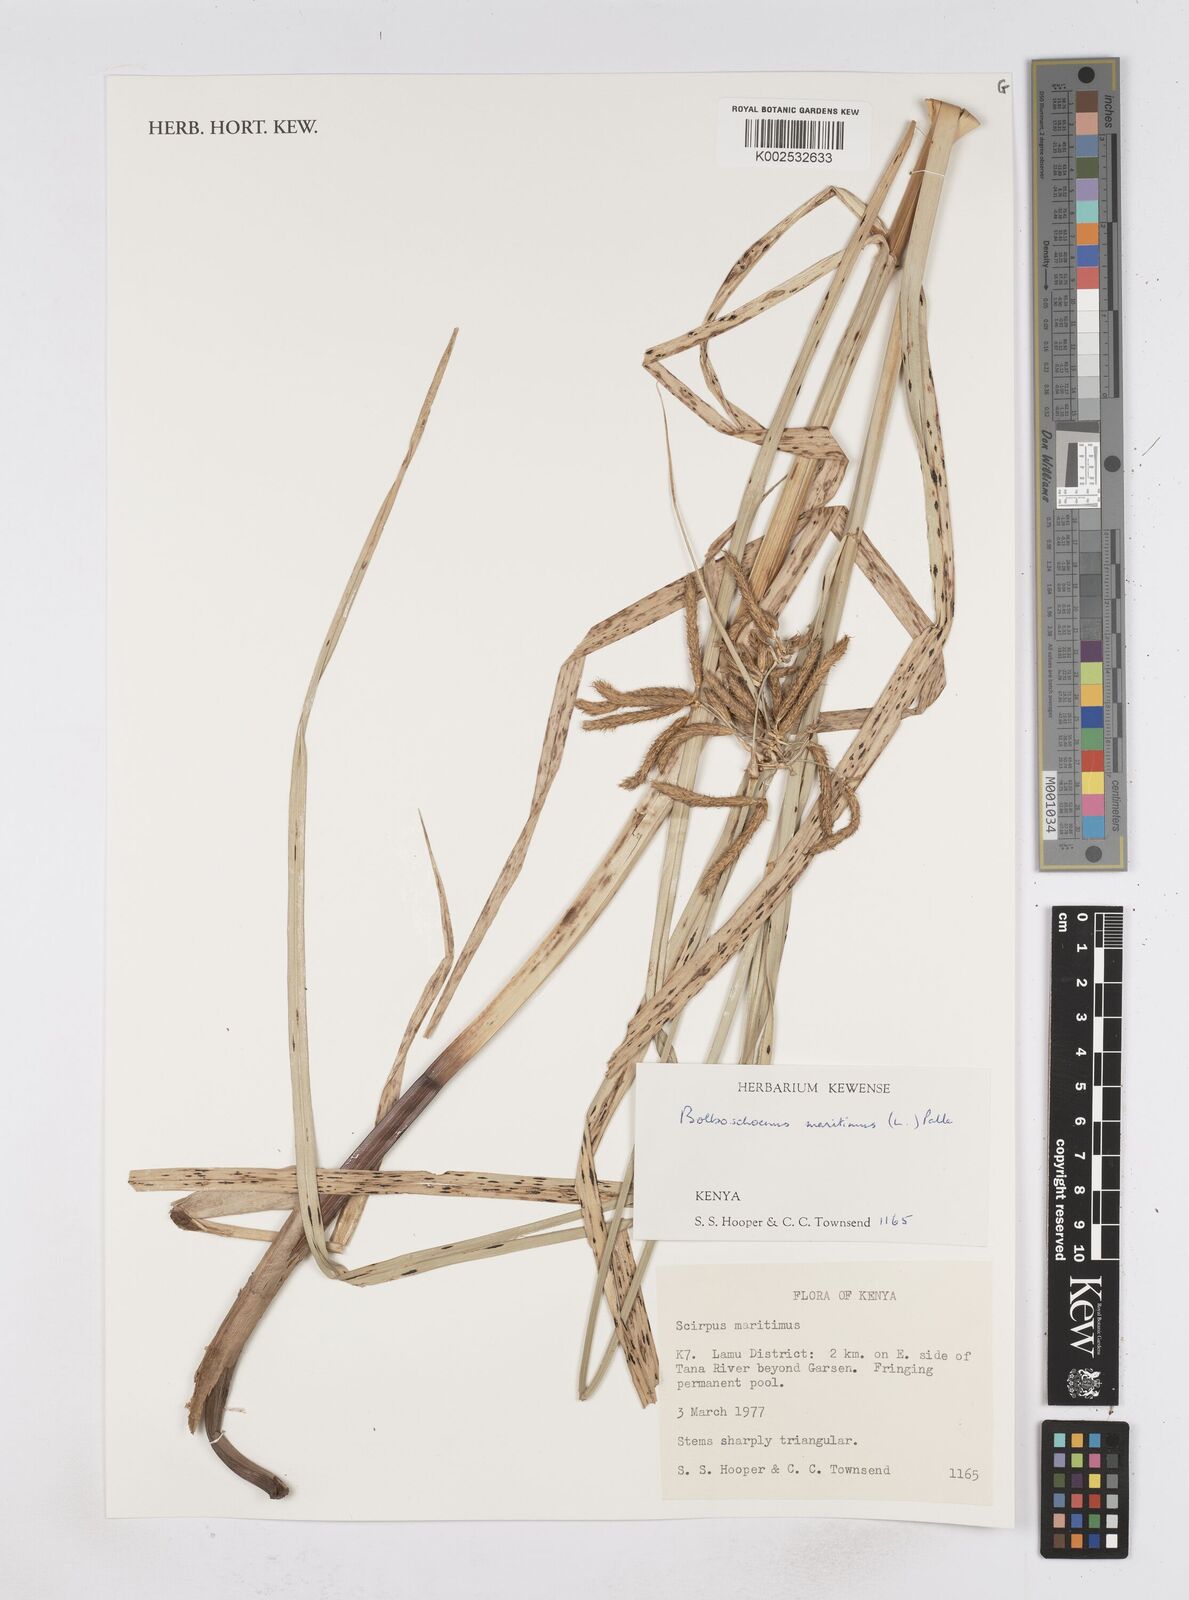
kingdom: Plantae
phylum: Tracheophyta
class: Liliopsida
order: Poales
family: Cyperaceae
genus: Bolboschoenus
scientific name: Bolboschoenus glaucus
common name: Tuberous bulrush
